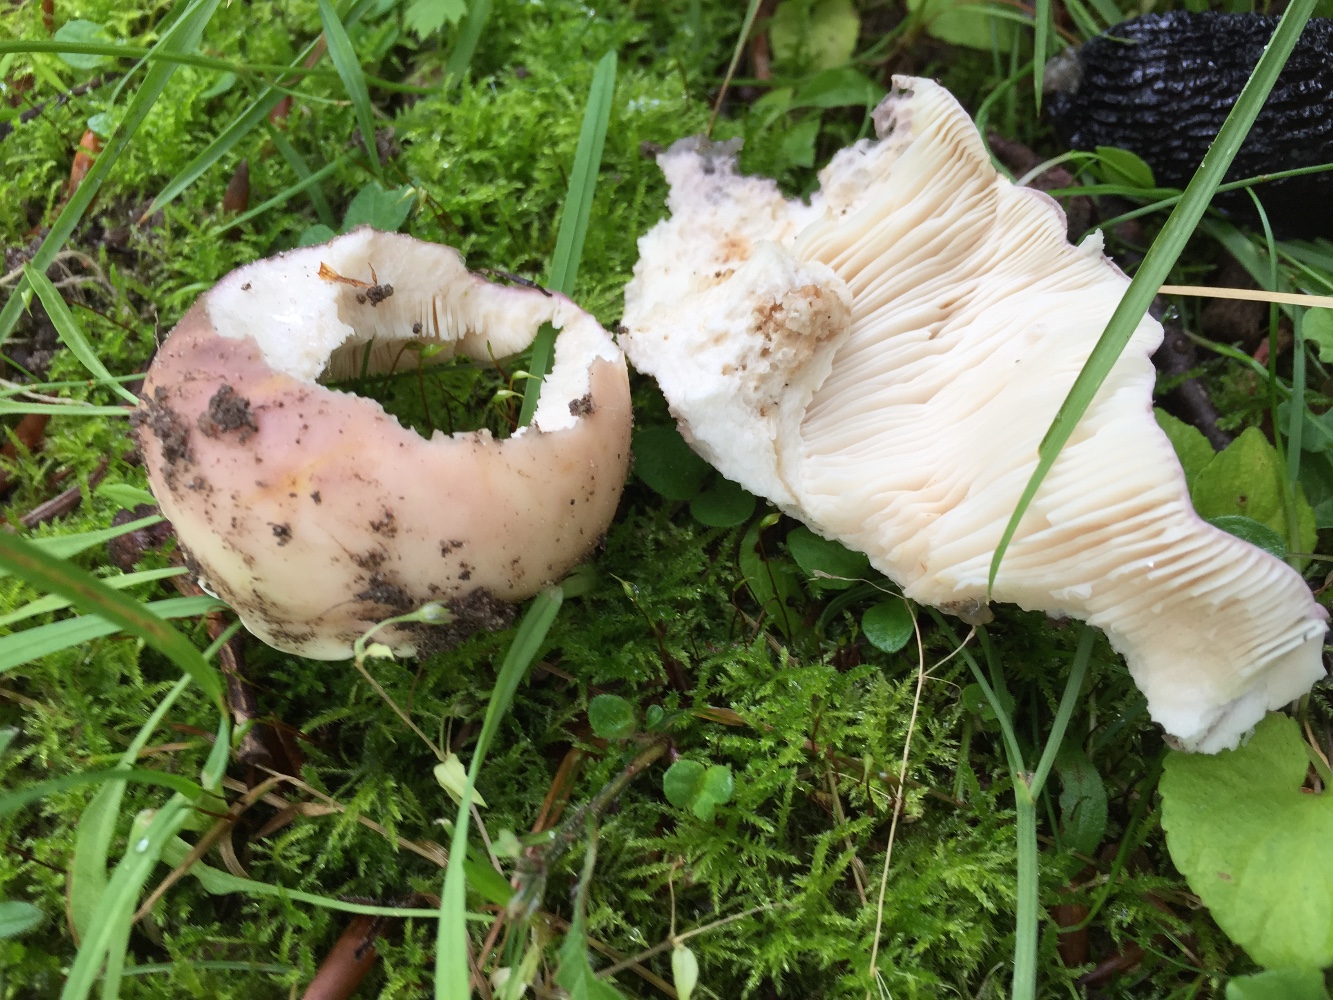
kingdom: Fungi
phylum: Basidiomycota
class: Agaricomycetes
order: Russulales
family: Russulaceae
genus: Russula
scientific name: Russula vesca
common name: spiselig skørhat
